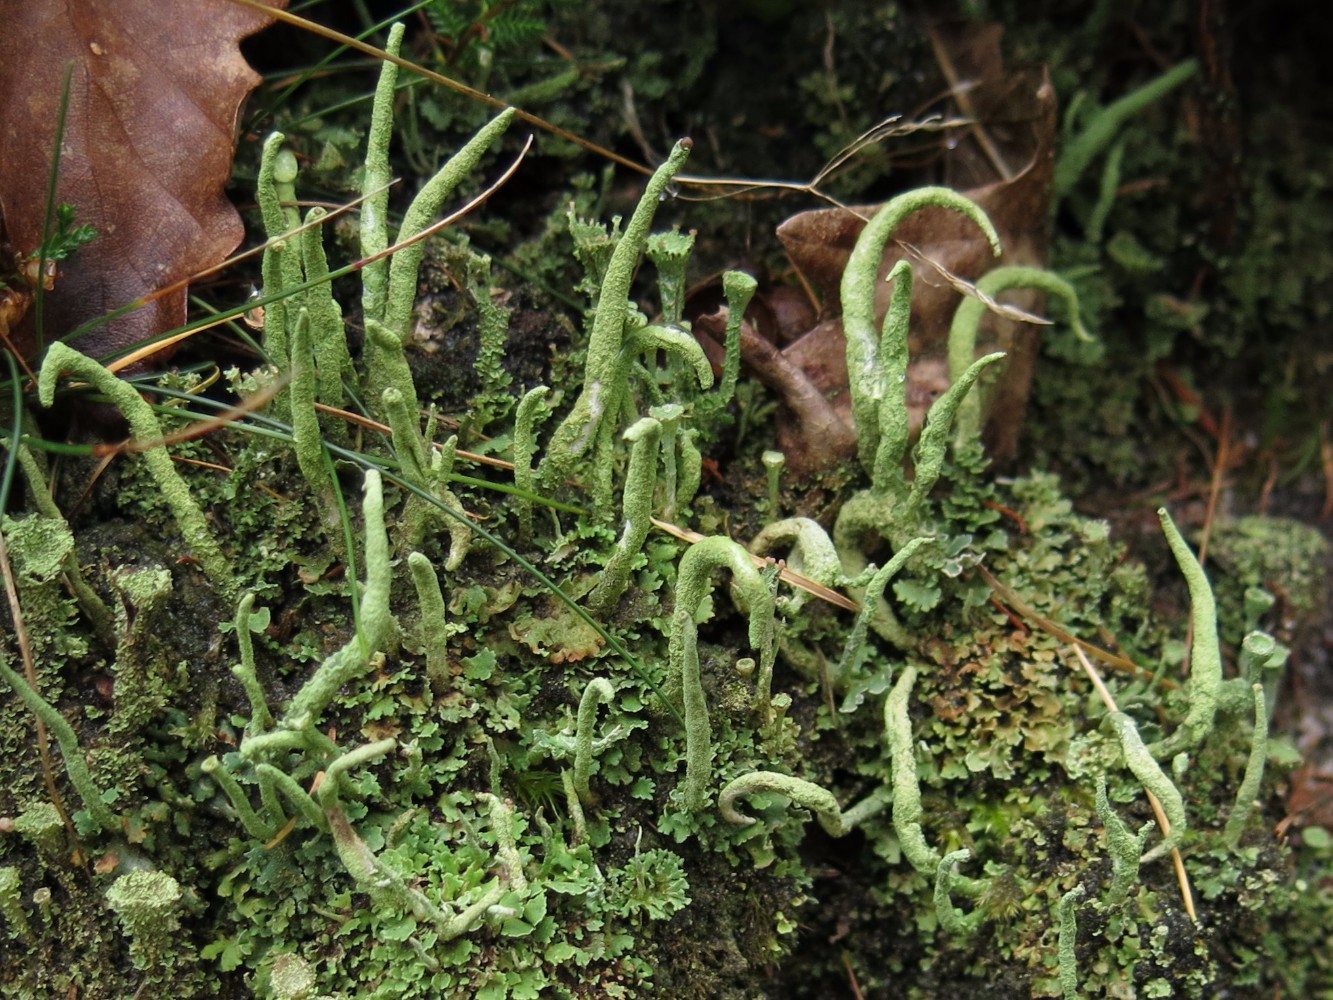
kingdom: Fungi
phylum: Ascomycota
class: Lecanoromycetes
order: Lecanorales
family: Cladoniaceae
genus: Cladonia
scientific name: Cladonia coniocraea
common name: træfods-bægerlav
